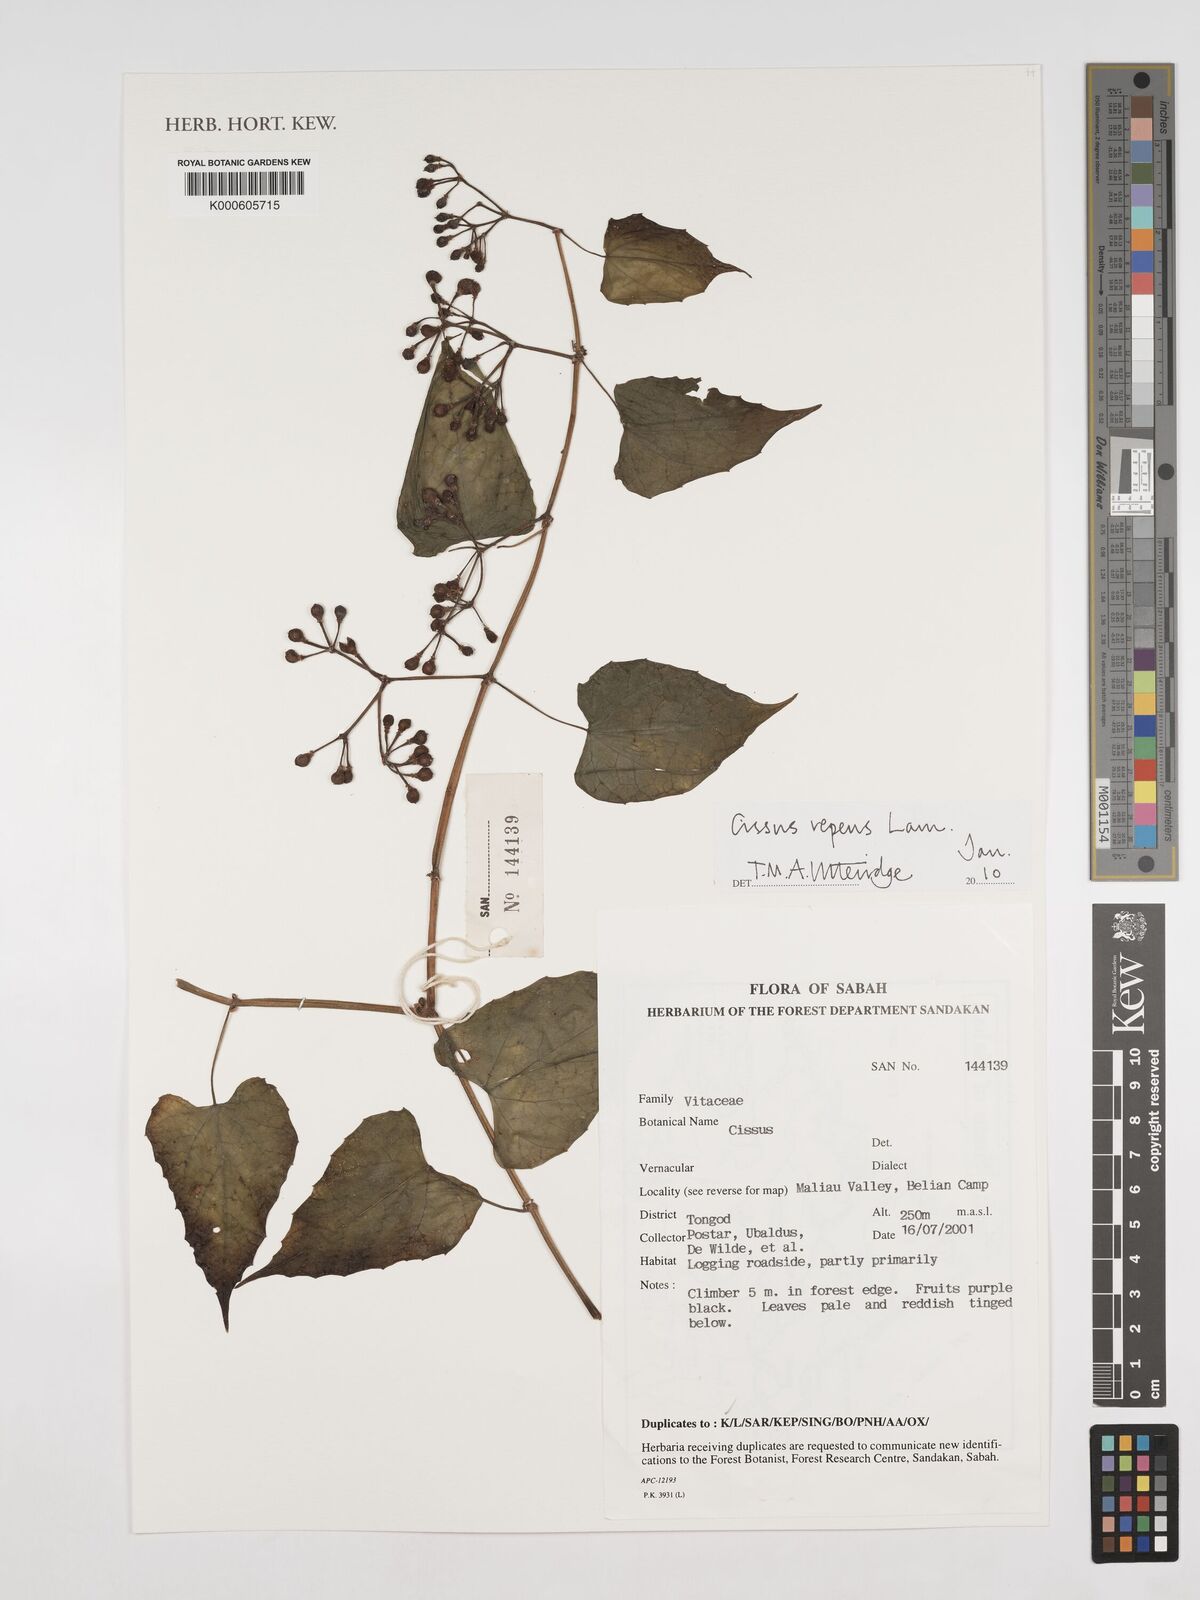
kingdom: Plantae
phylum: Tracheophyta
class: Magnoliopsida
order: Vitales
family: Vitaceae
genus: Cissus
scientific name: Cissus repens
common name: Cissus
